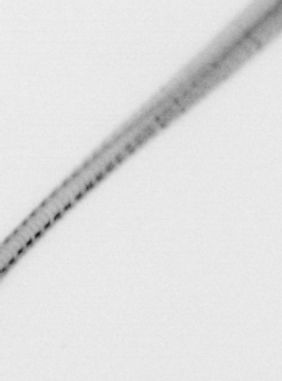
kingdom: Chromista
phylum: Ochrophyta
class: Bacillariophyceae
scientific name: Bacillariophyceae
